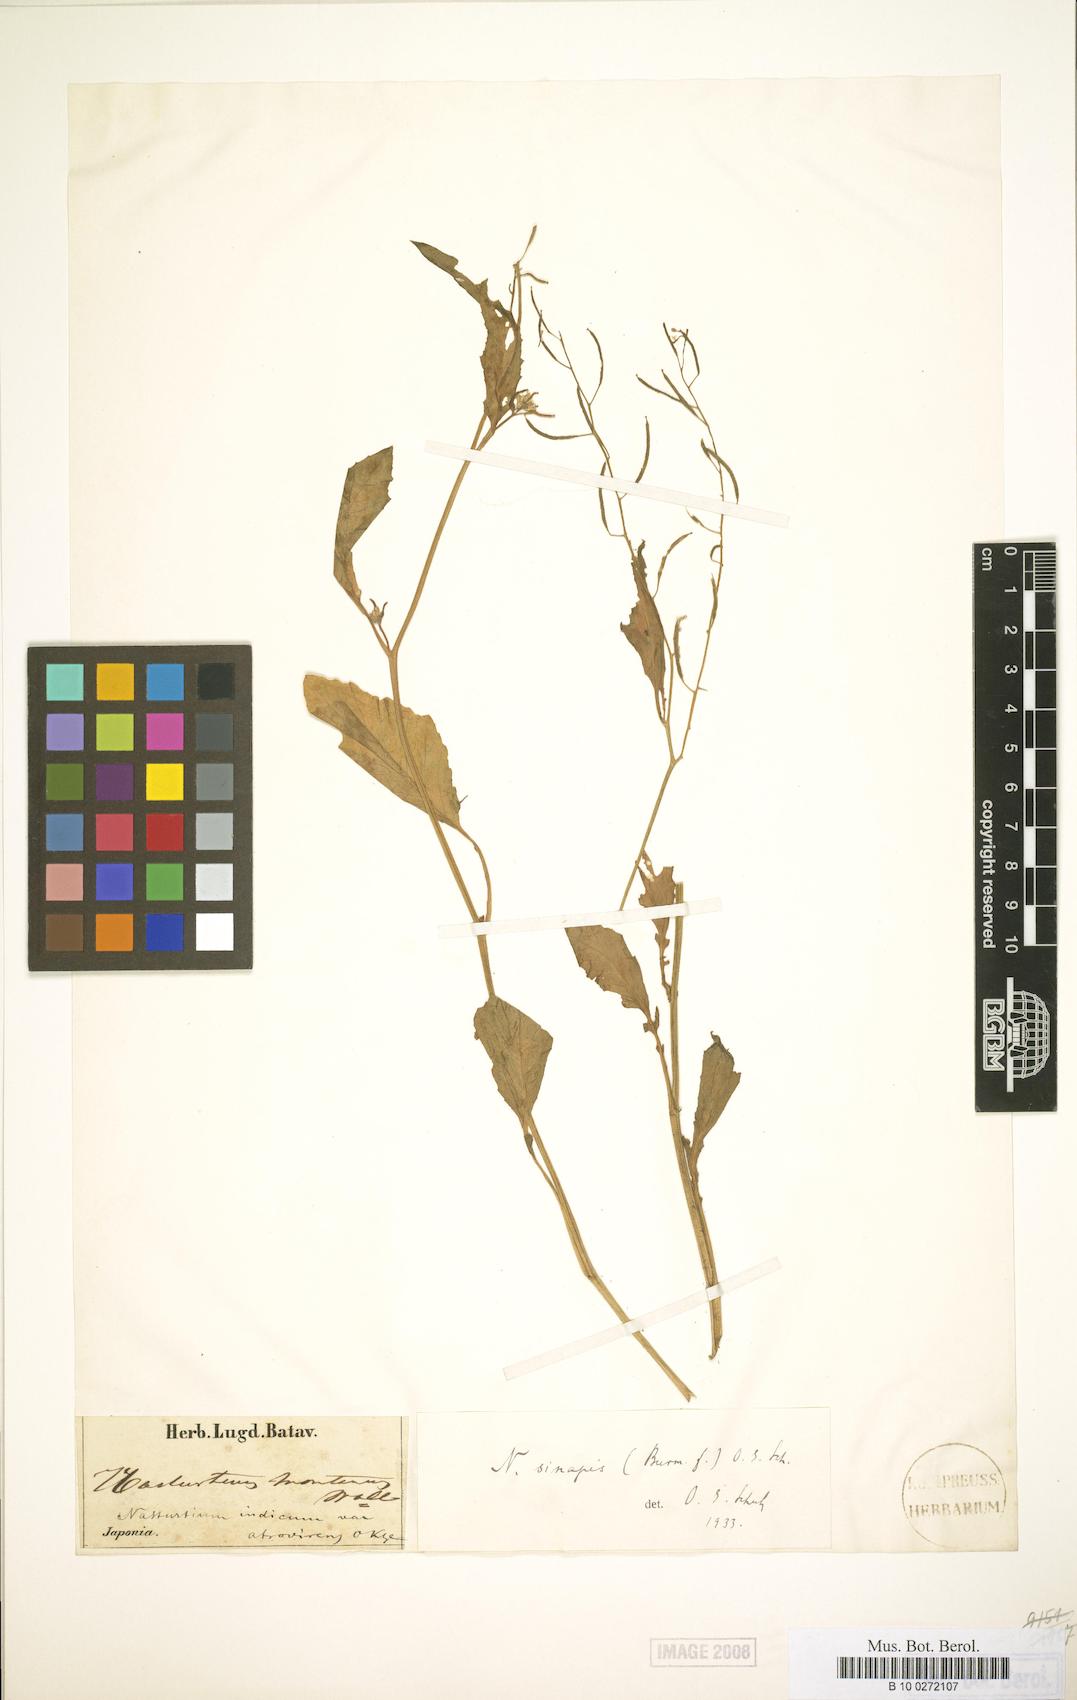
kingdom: Plantae
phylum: Tracheophyta
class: Magnoliopsida
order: Brassicales
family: Brassicaceae
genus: Rorippa
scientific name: Rorippa indica
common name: Variableleaf yellowcress
